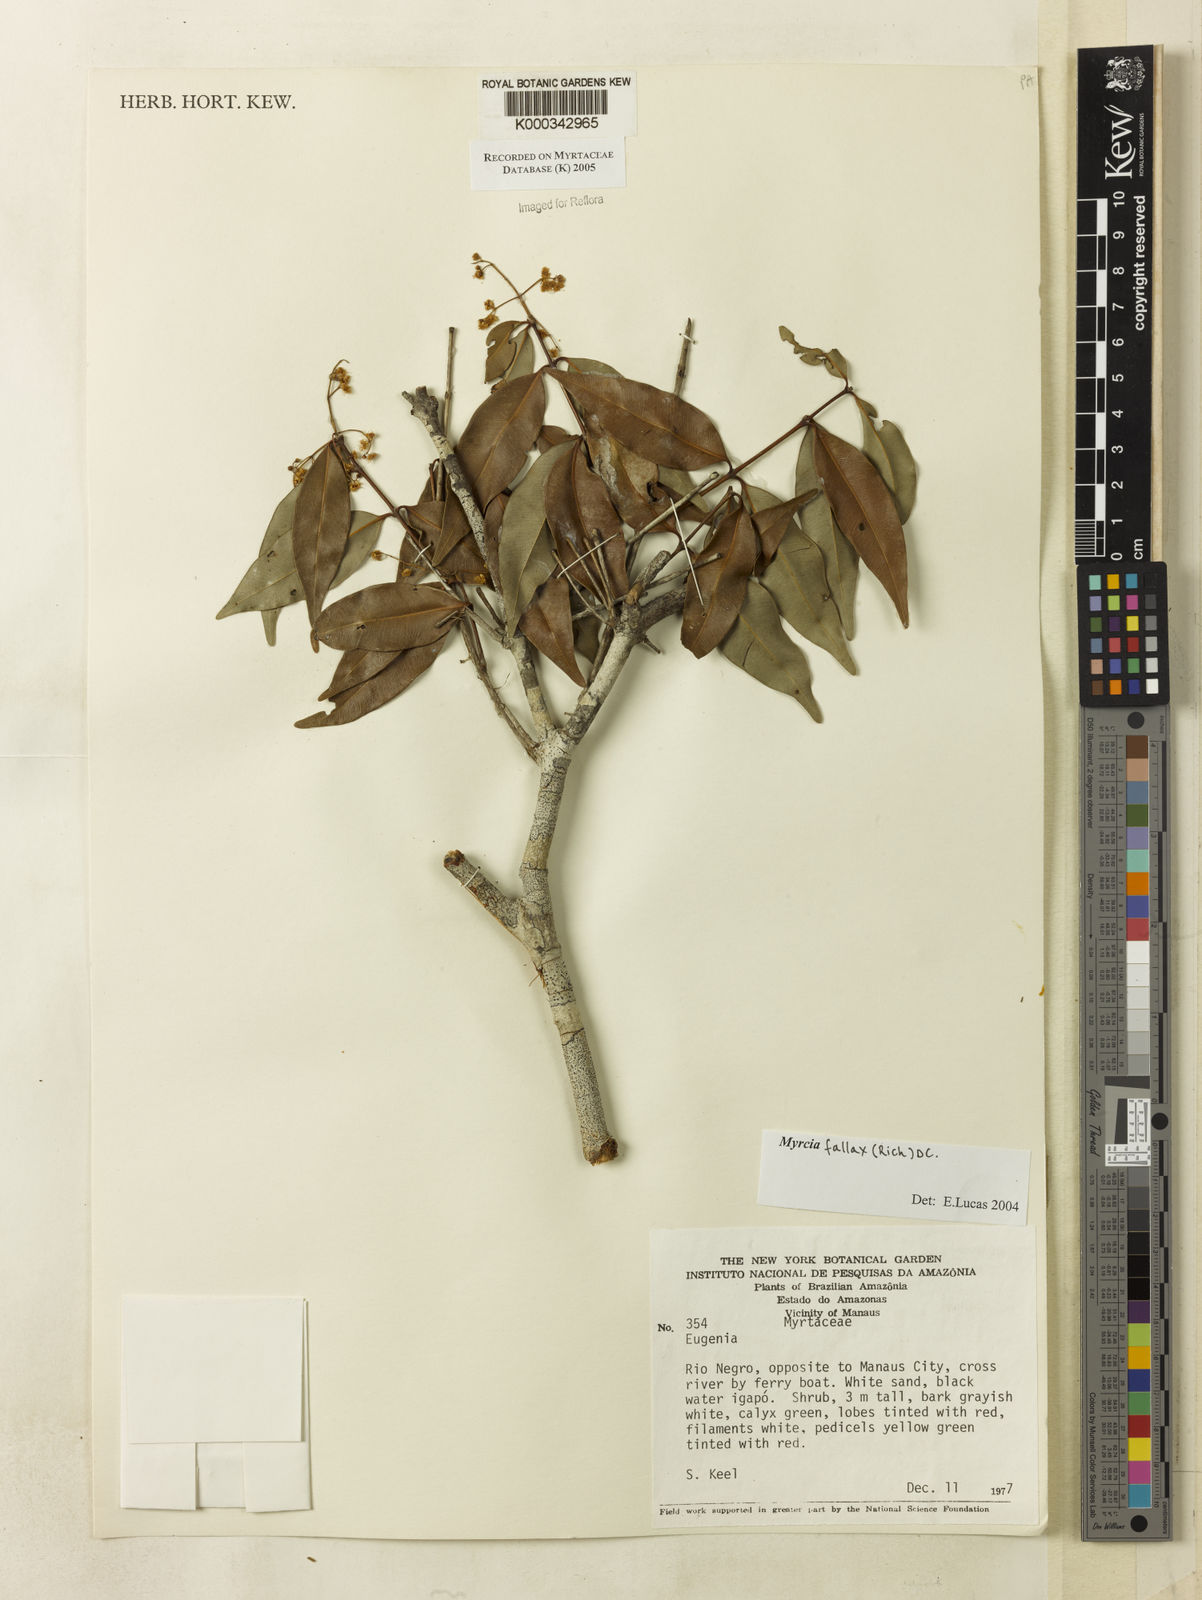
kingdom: Plantae
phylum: Tracheophyta
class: Magnoliopsida
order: Myrtales
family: Myrtaceae
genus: Myrcia
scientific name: Myrcia splendens
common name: Surinam cherry
